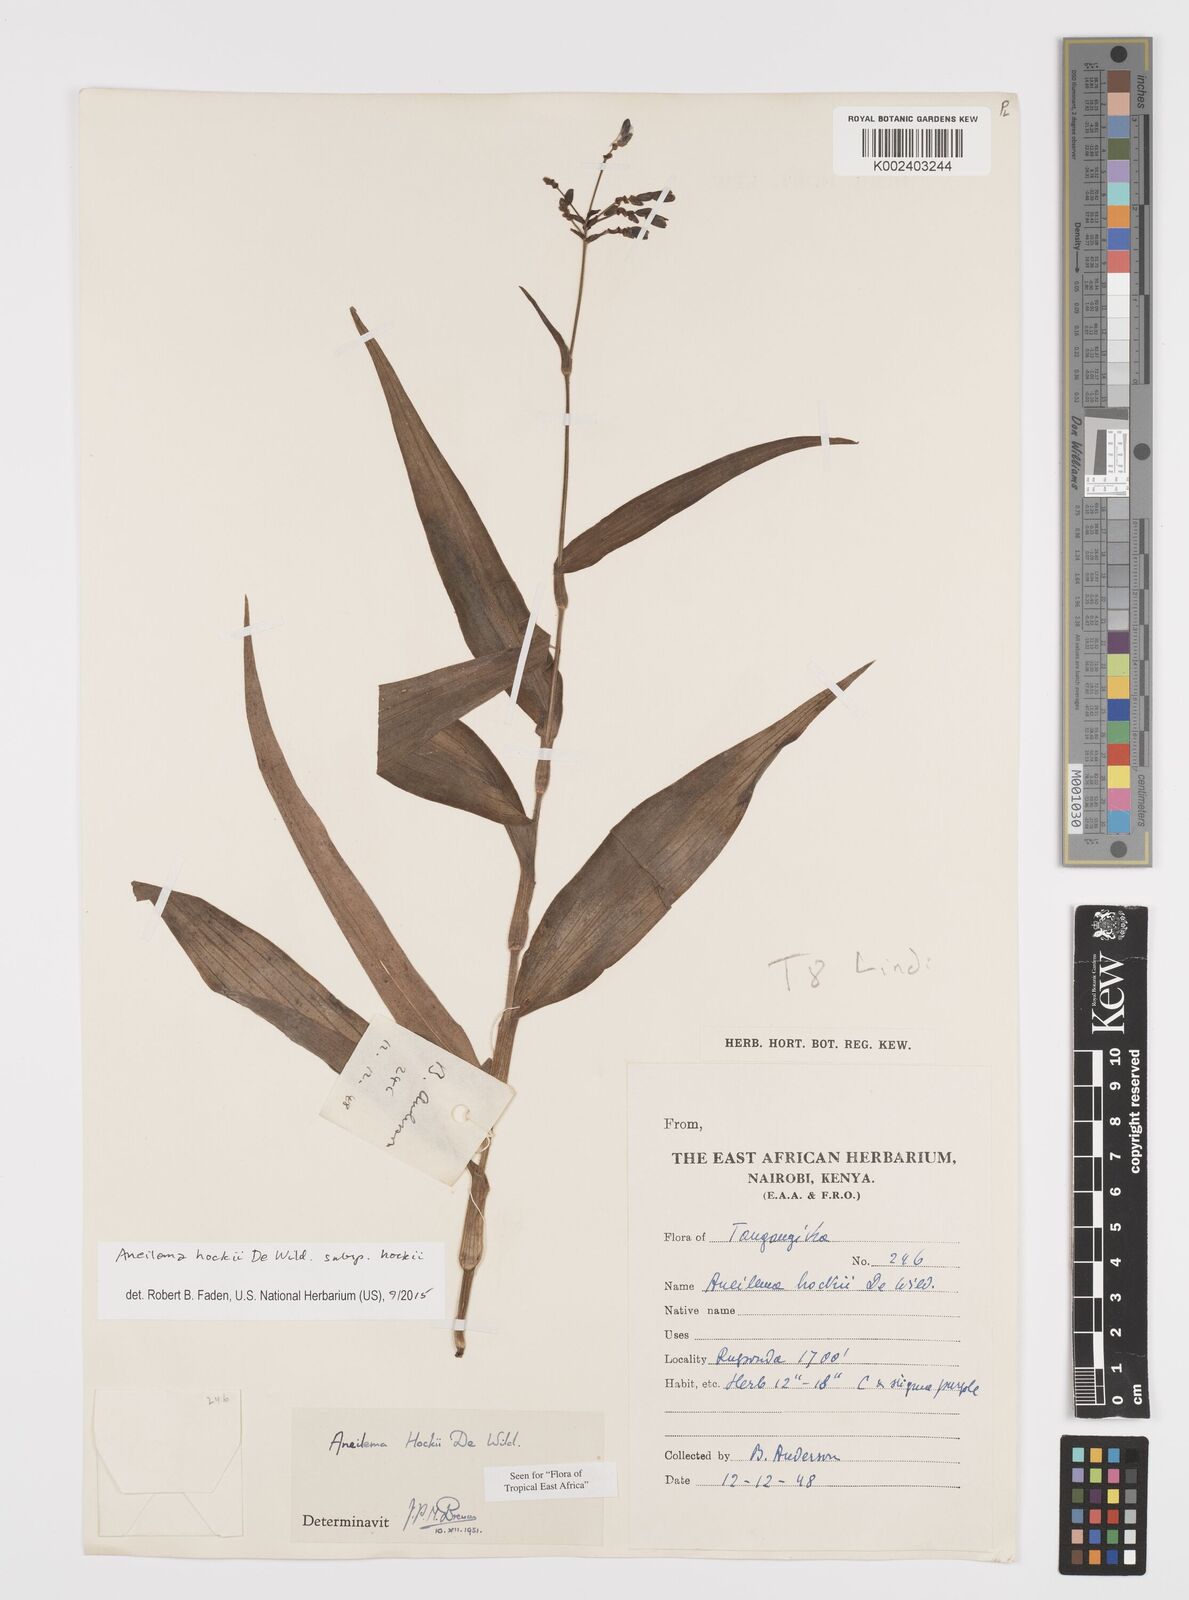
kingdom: Plantae
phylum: Tracheophyta
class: Liliopsida
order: Commelinales
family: Commelinaceae
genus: Aneilema
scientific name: Aneilema hockii
